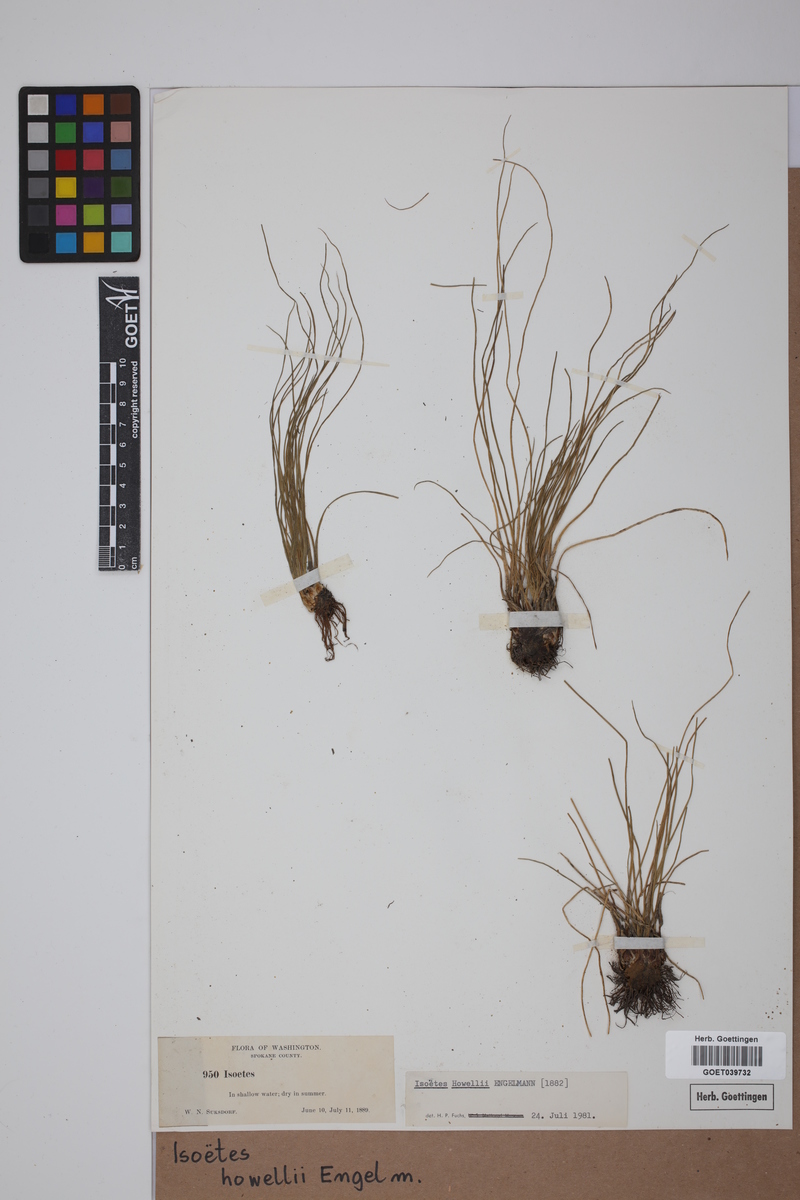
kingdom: Plantae
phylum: Tracheophyta
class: Lycopodiopsida
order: Isoetales
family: Isoetaceae
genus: Isoetes
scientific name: Isoetes howellii
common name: Howell's quillwort
